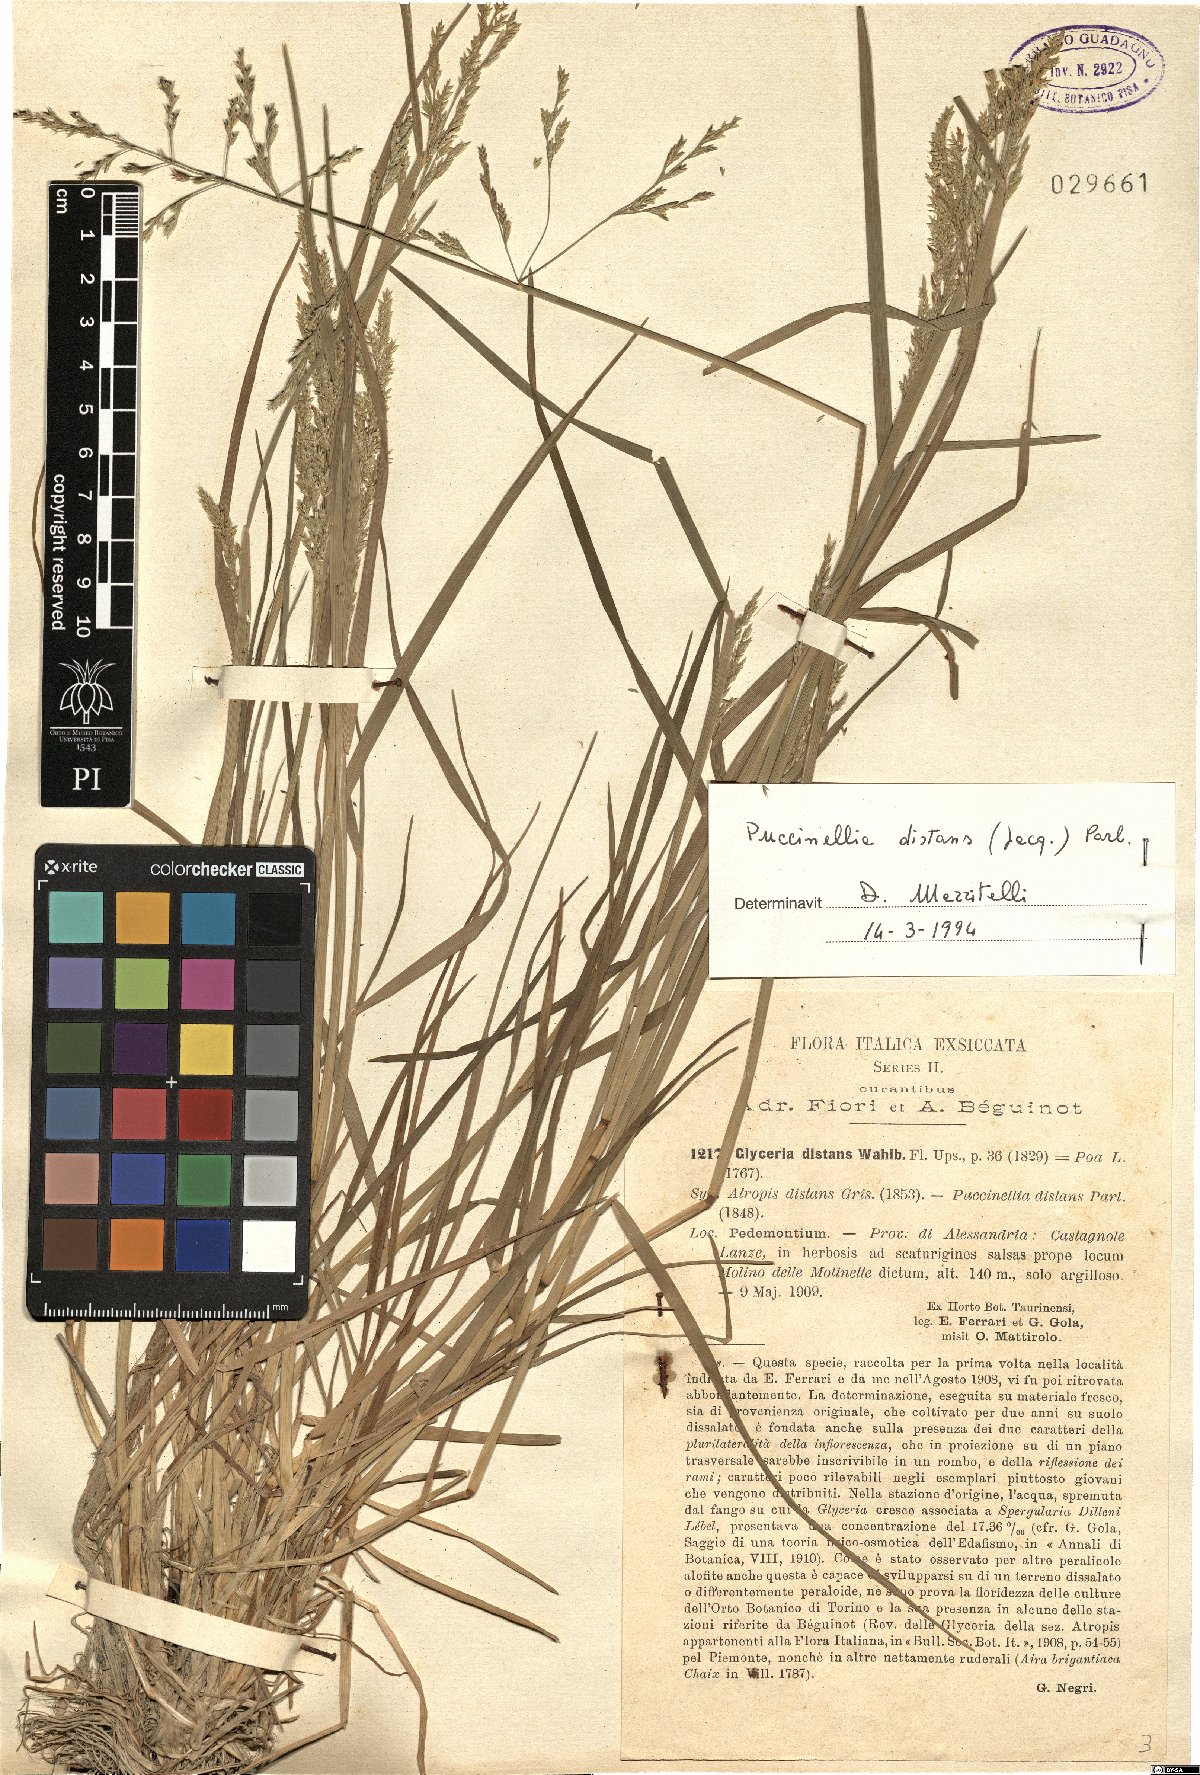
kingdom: Plantae
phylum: Tracheophyta
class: Liliopsida
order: Poales
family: Poaceae
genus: Puccinellia
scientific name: Puccinellia distans
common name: Weeping alkaligrass
